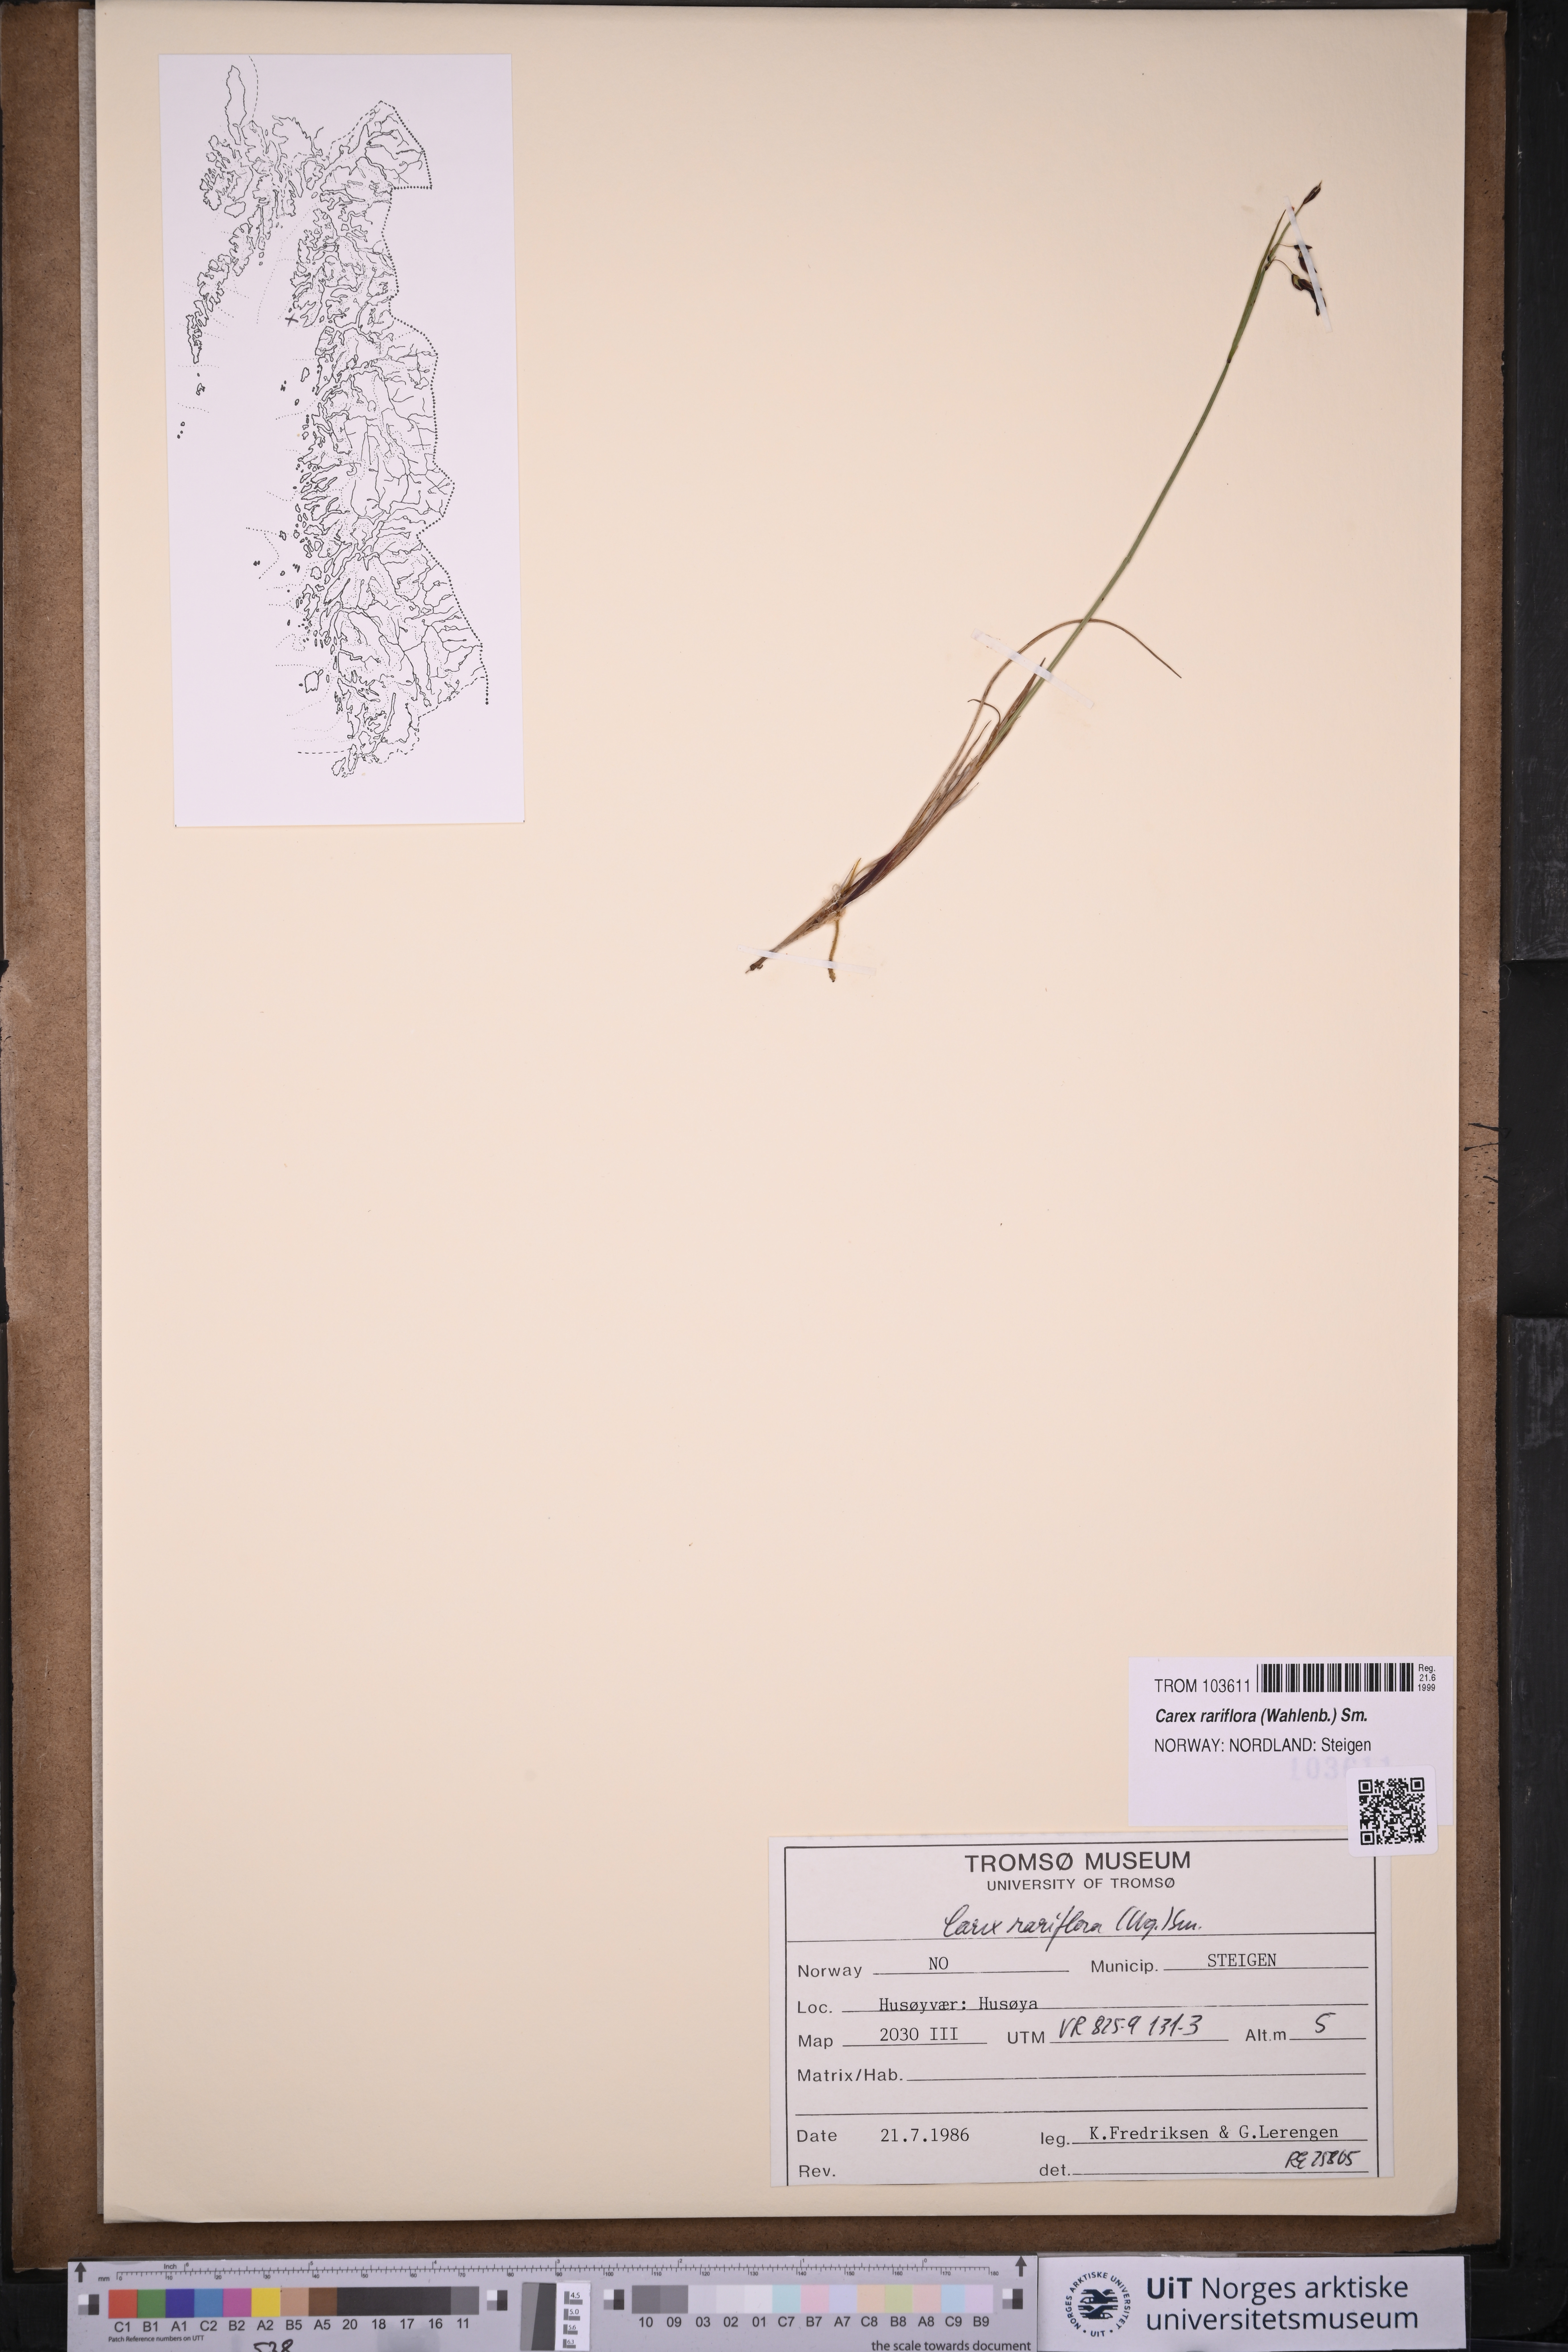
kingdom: Plantae
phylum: Tracheophyta
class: Liliopsida
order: Poales
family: Cyperaceae
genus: Carex
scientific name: Carex rariflora
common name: Loose-flowered alpine sedge
